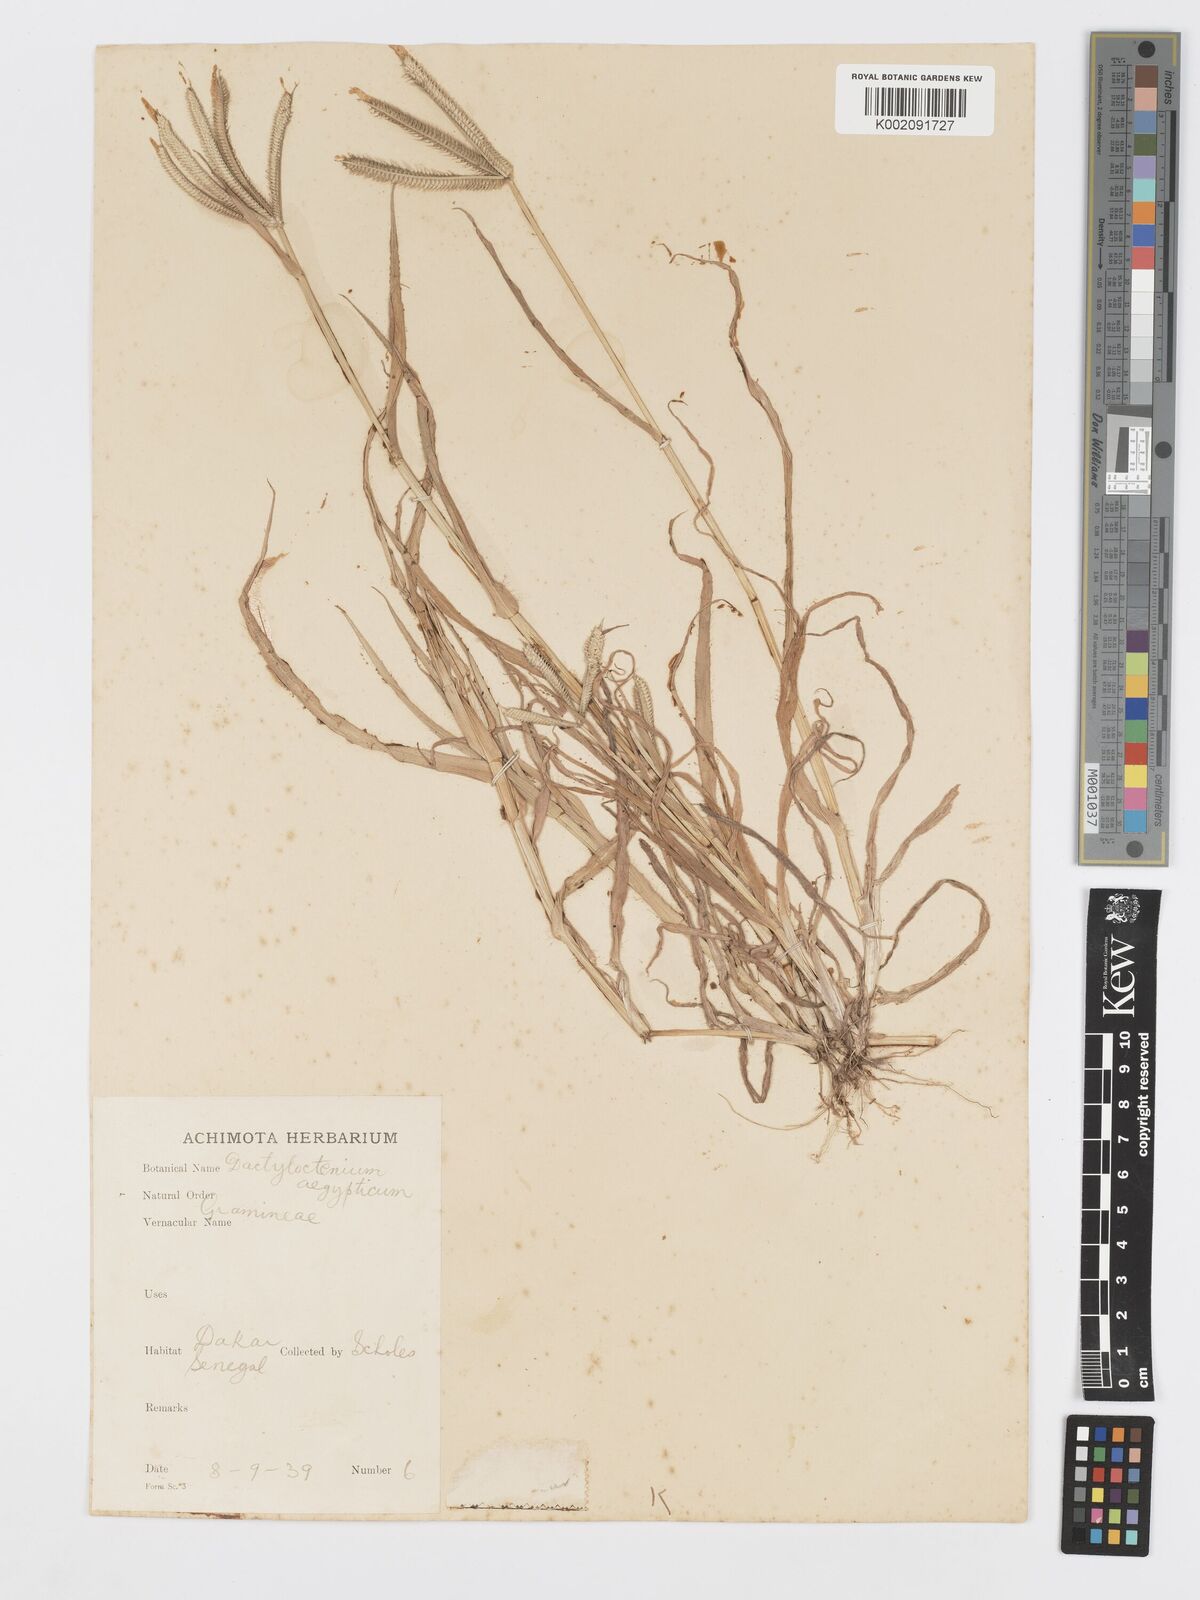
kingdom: Plantae
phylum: Tracheophyta
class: Liliopsida
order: Poales
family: Poaceae
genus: Dactyloctenium
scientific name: Dactyloctenium aegyptium
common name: Egyptian grass
